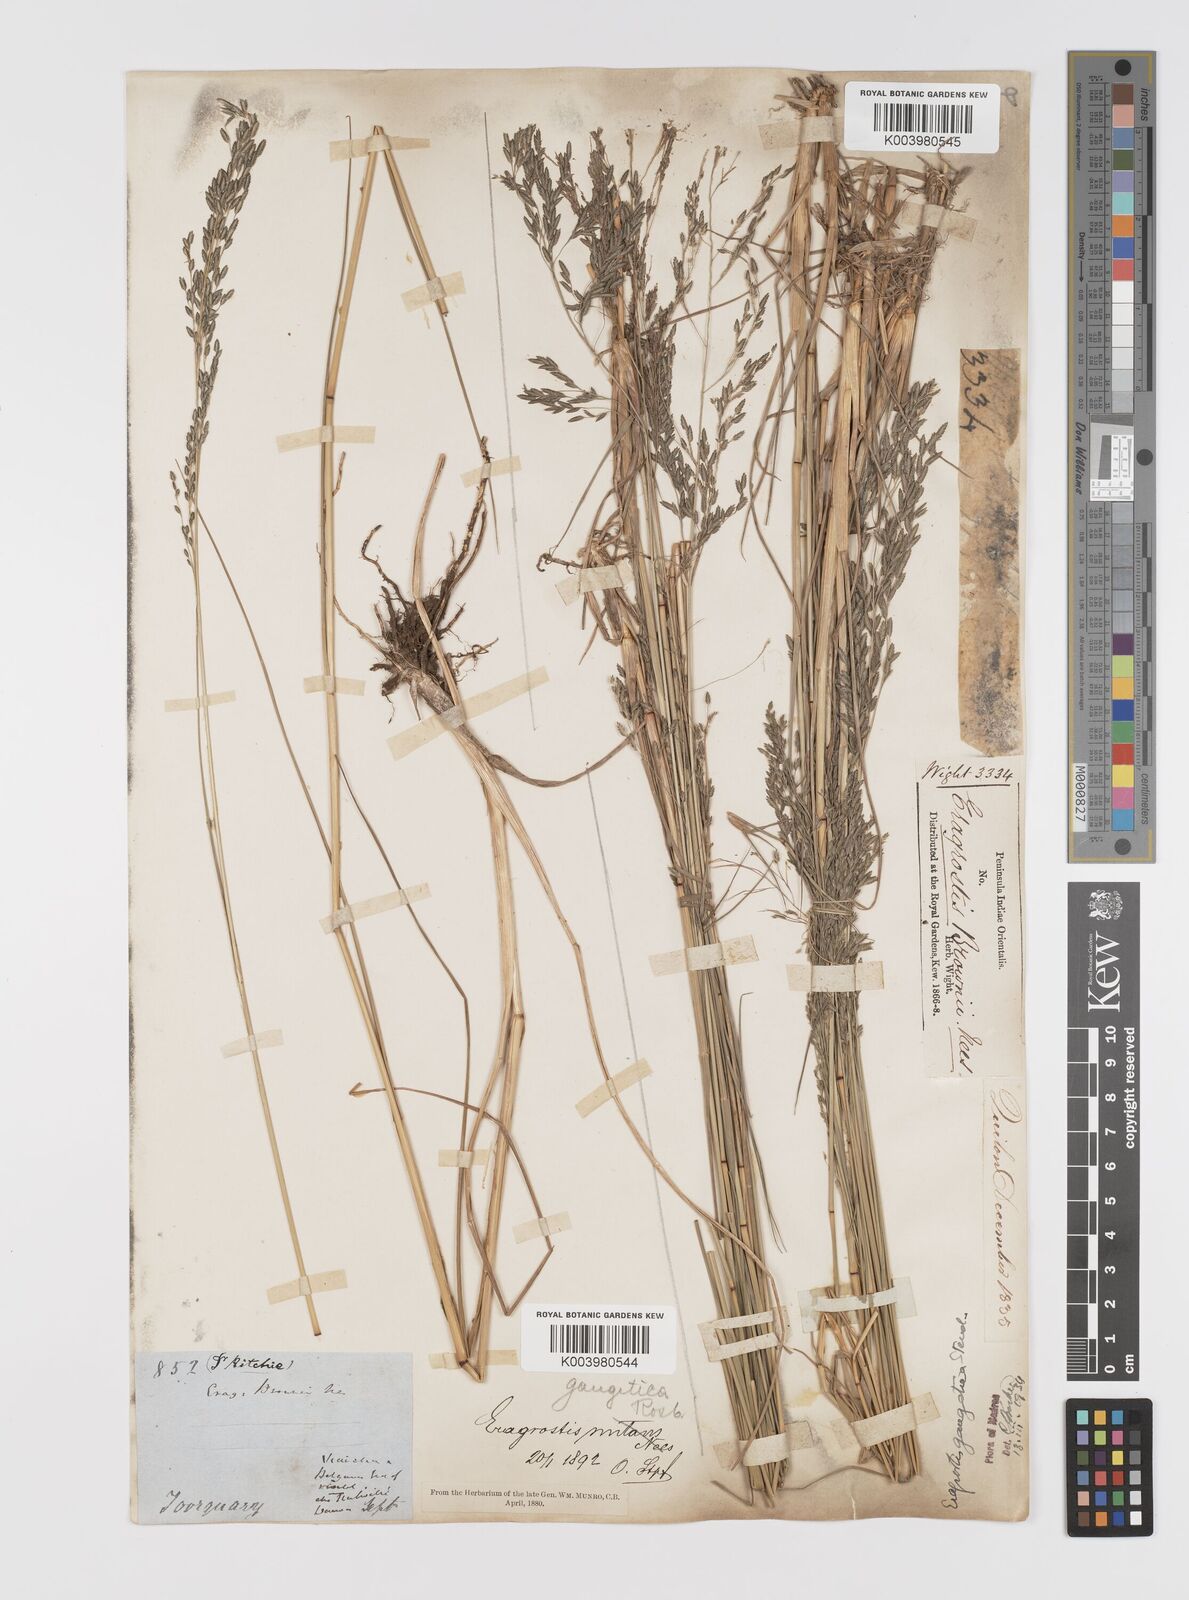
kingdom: Plantae
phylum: Tracheophyta
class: Liliopsida
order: Poales
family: Poaceae
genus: Eragrostis
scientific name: Eragrostis
